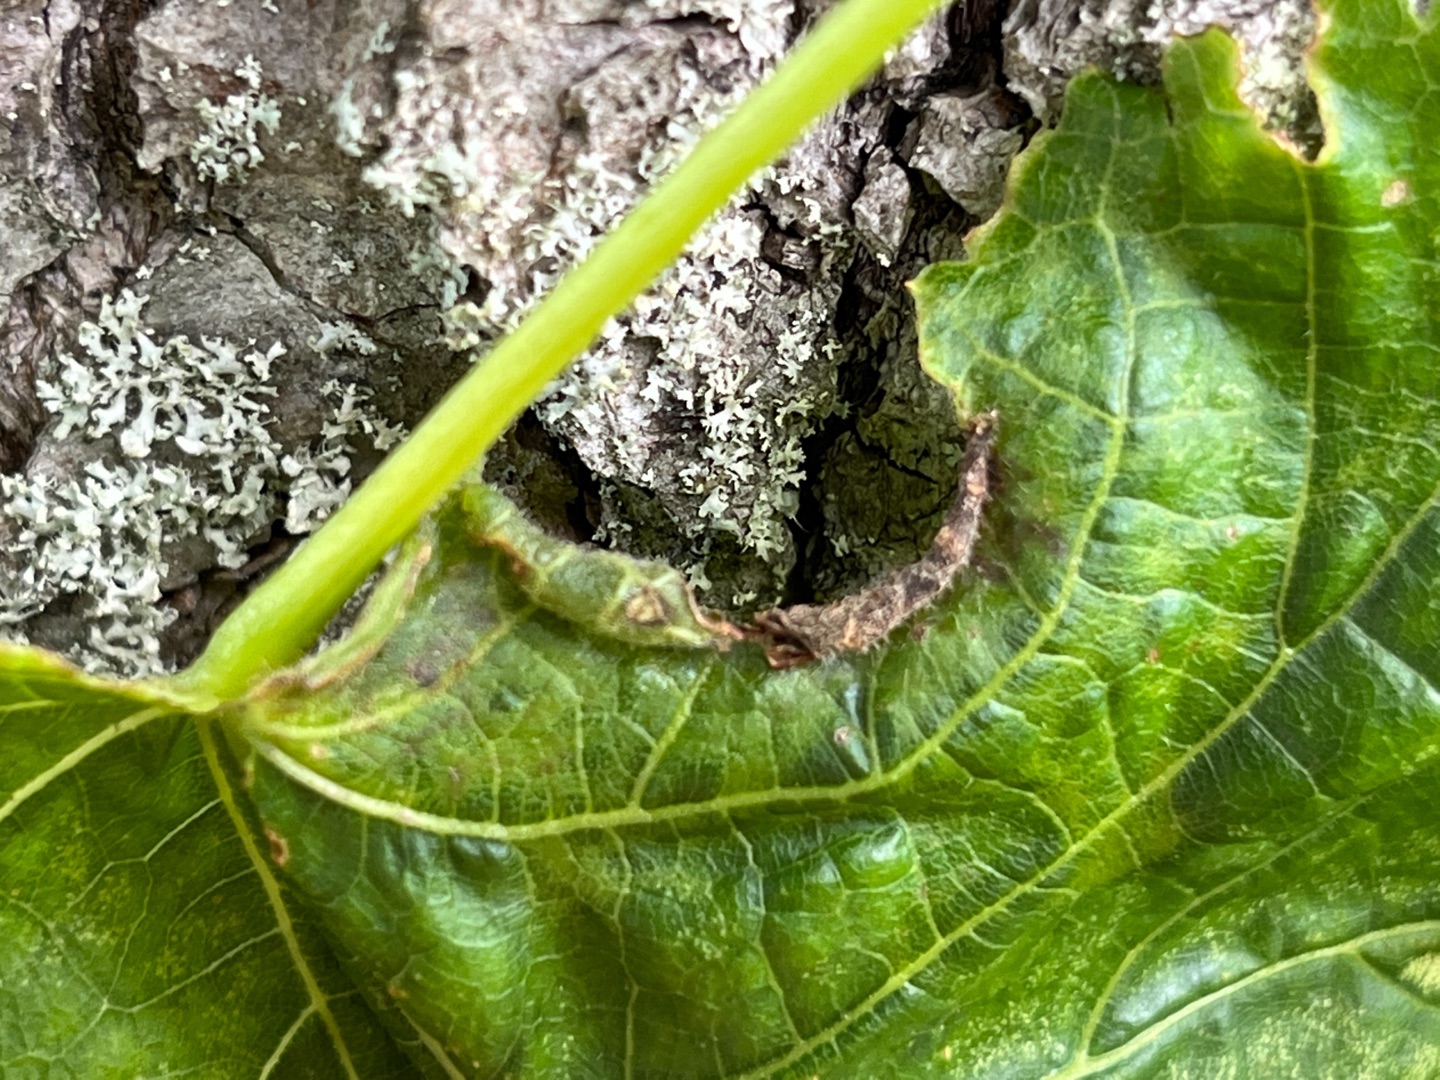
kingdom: Animalia
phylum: Arthropoda
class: Insecta
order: Diptera
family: Cecidomyiidae
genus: Dasineura
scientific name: Dasineura tiliae
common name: Linderullegalmyg
